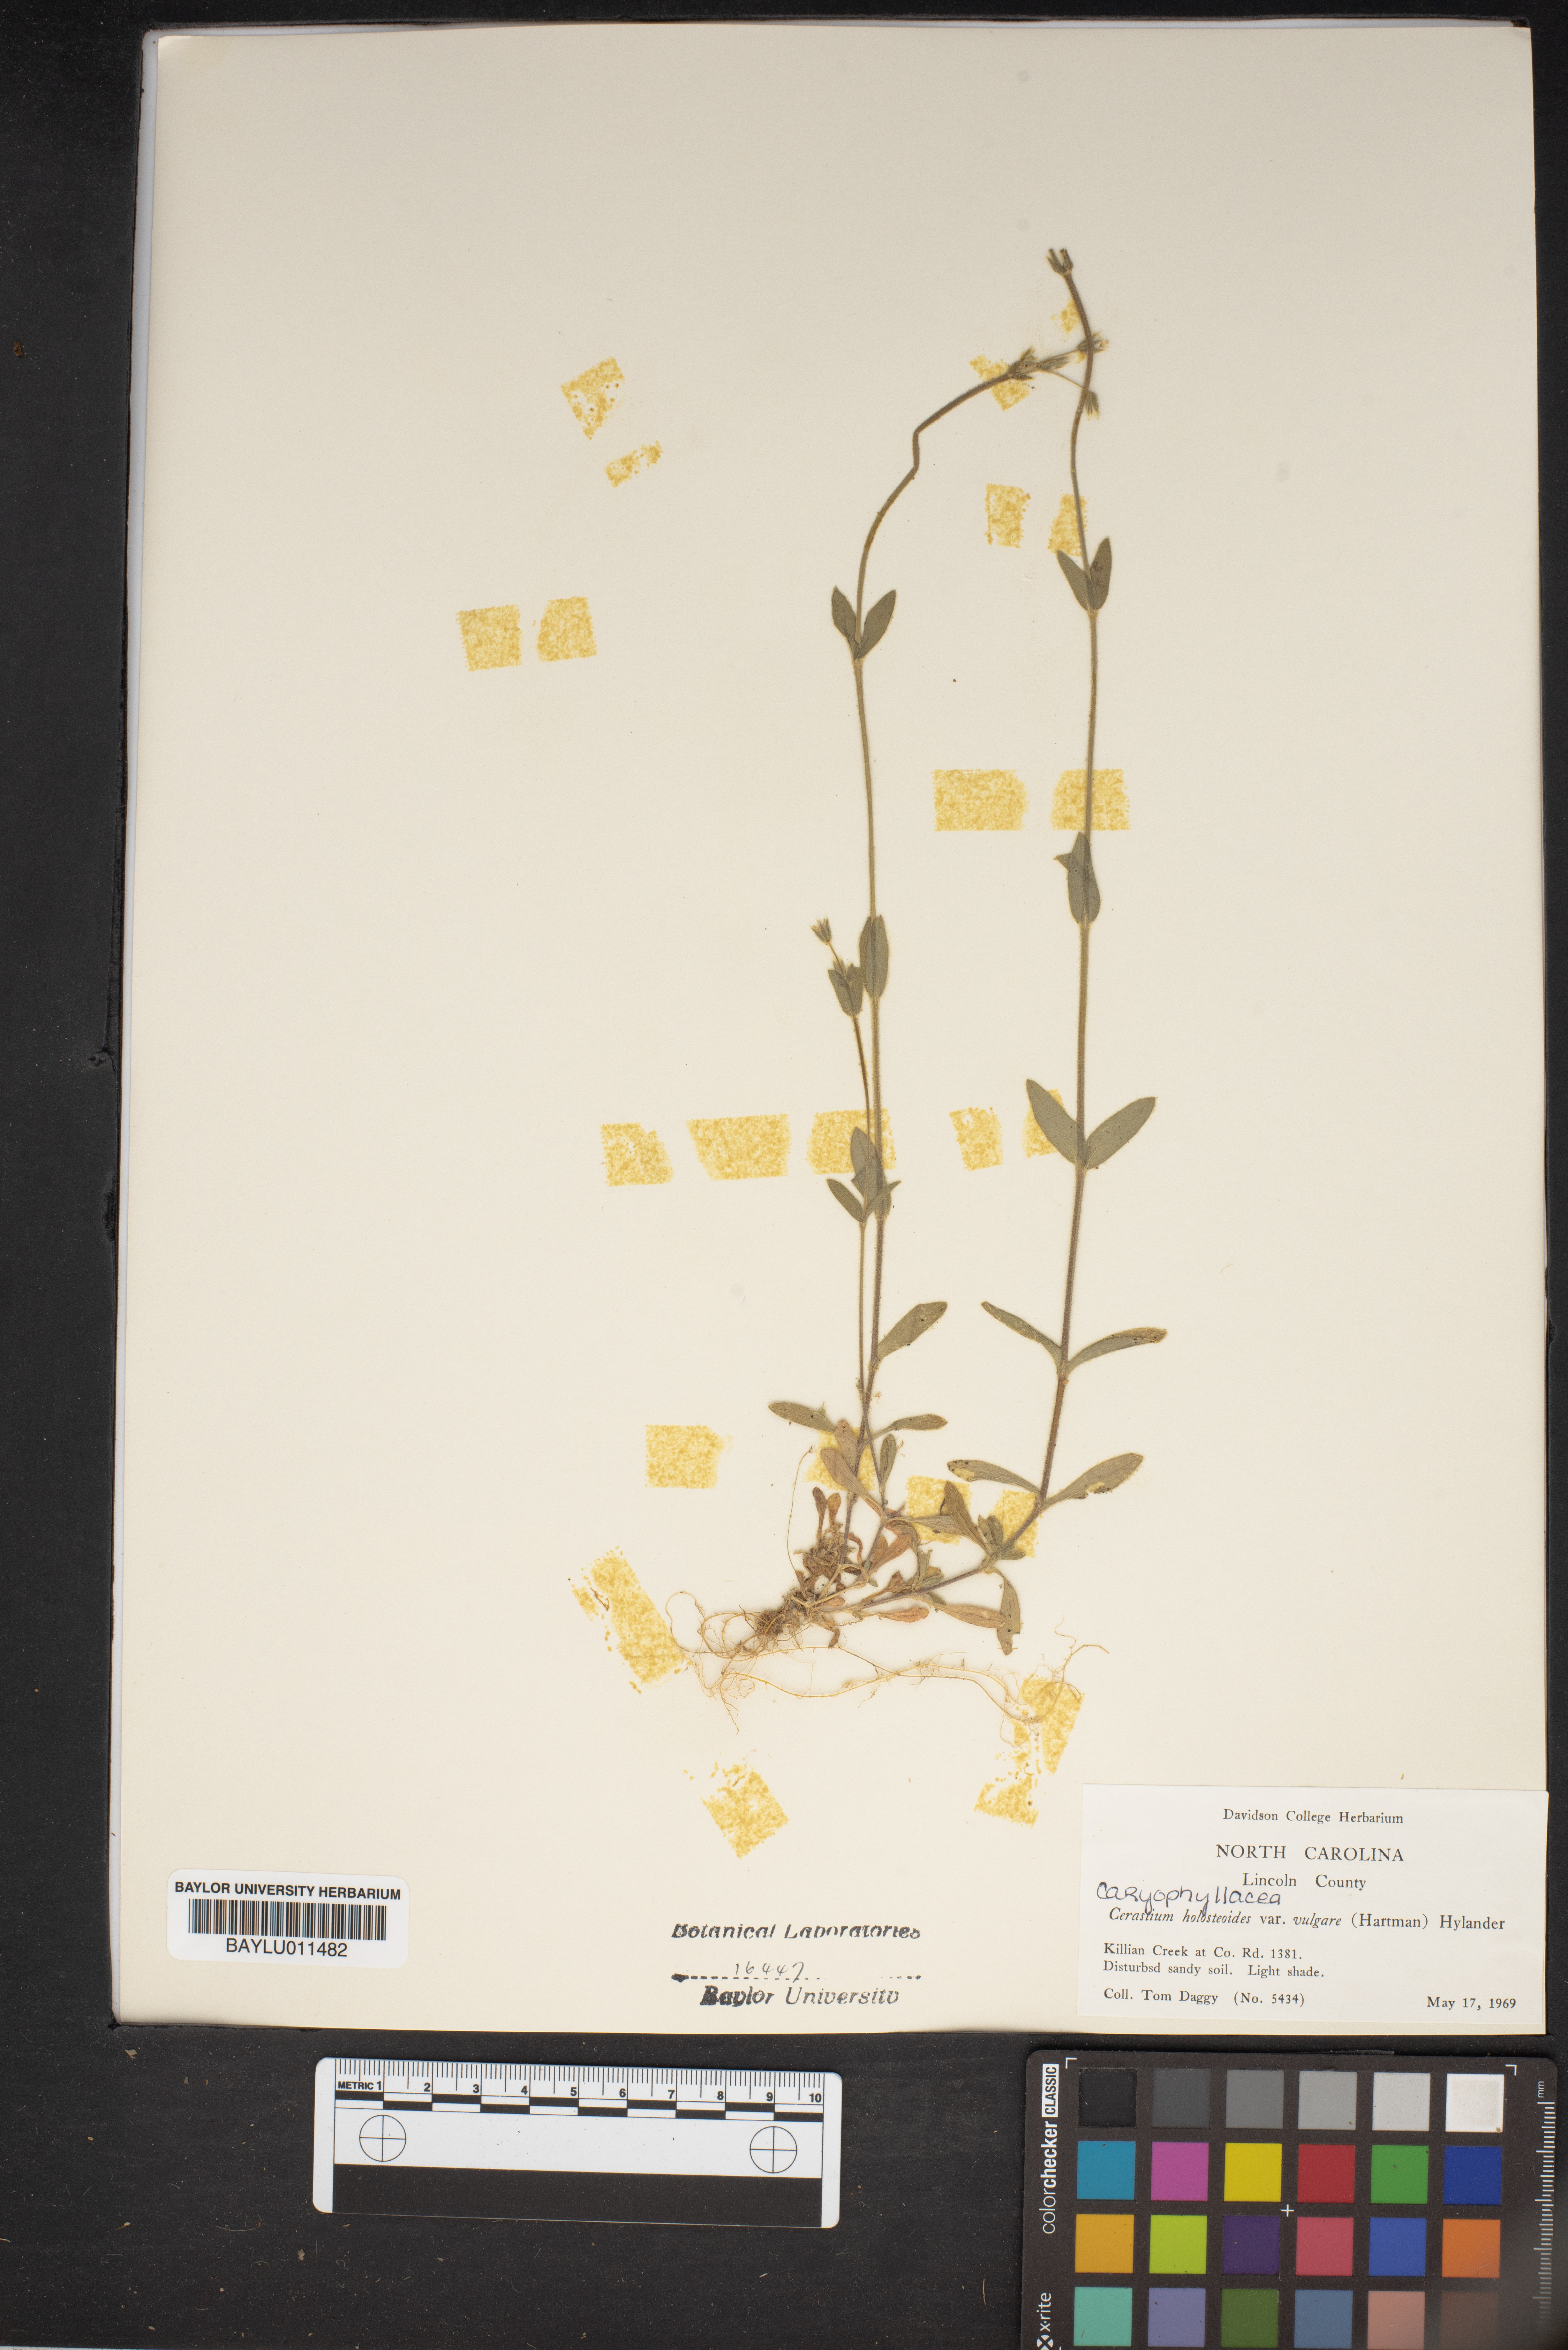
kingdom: Plantae
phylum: Tracheophyta
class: Magnoliopsida
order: Caryophyllales
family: Caryophyllaceae
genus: Cerastium
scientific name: Cerastium holosteoides
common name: Big chickweed
